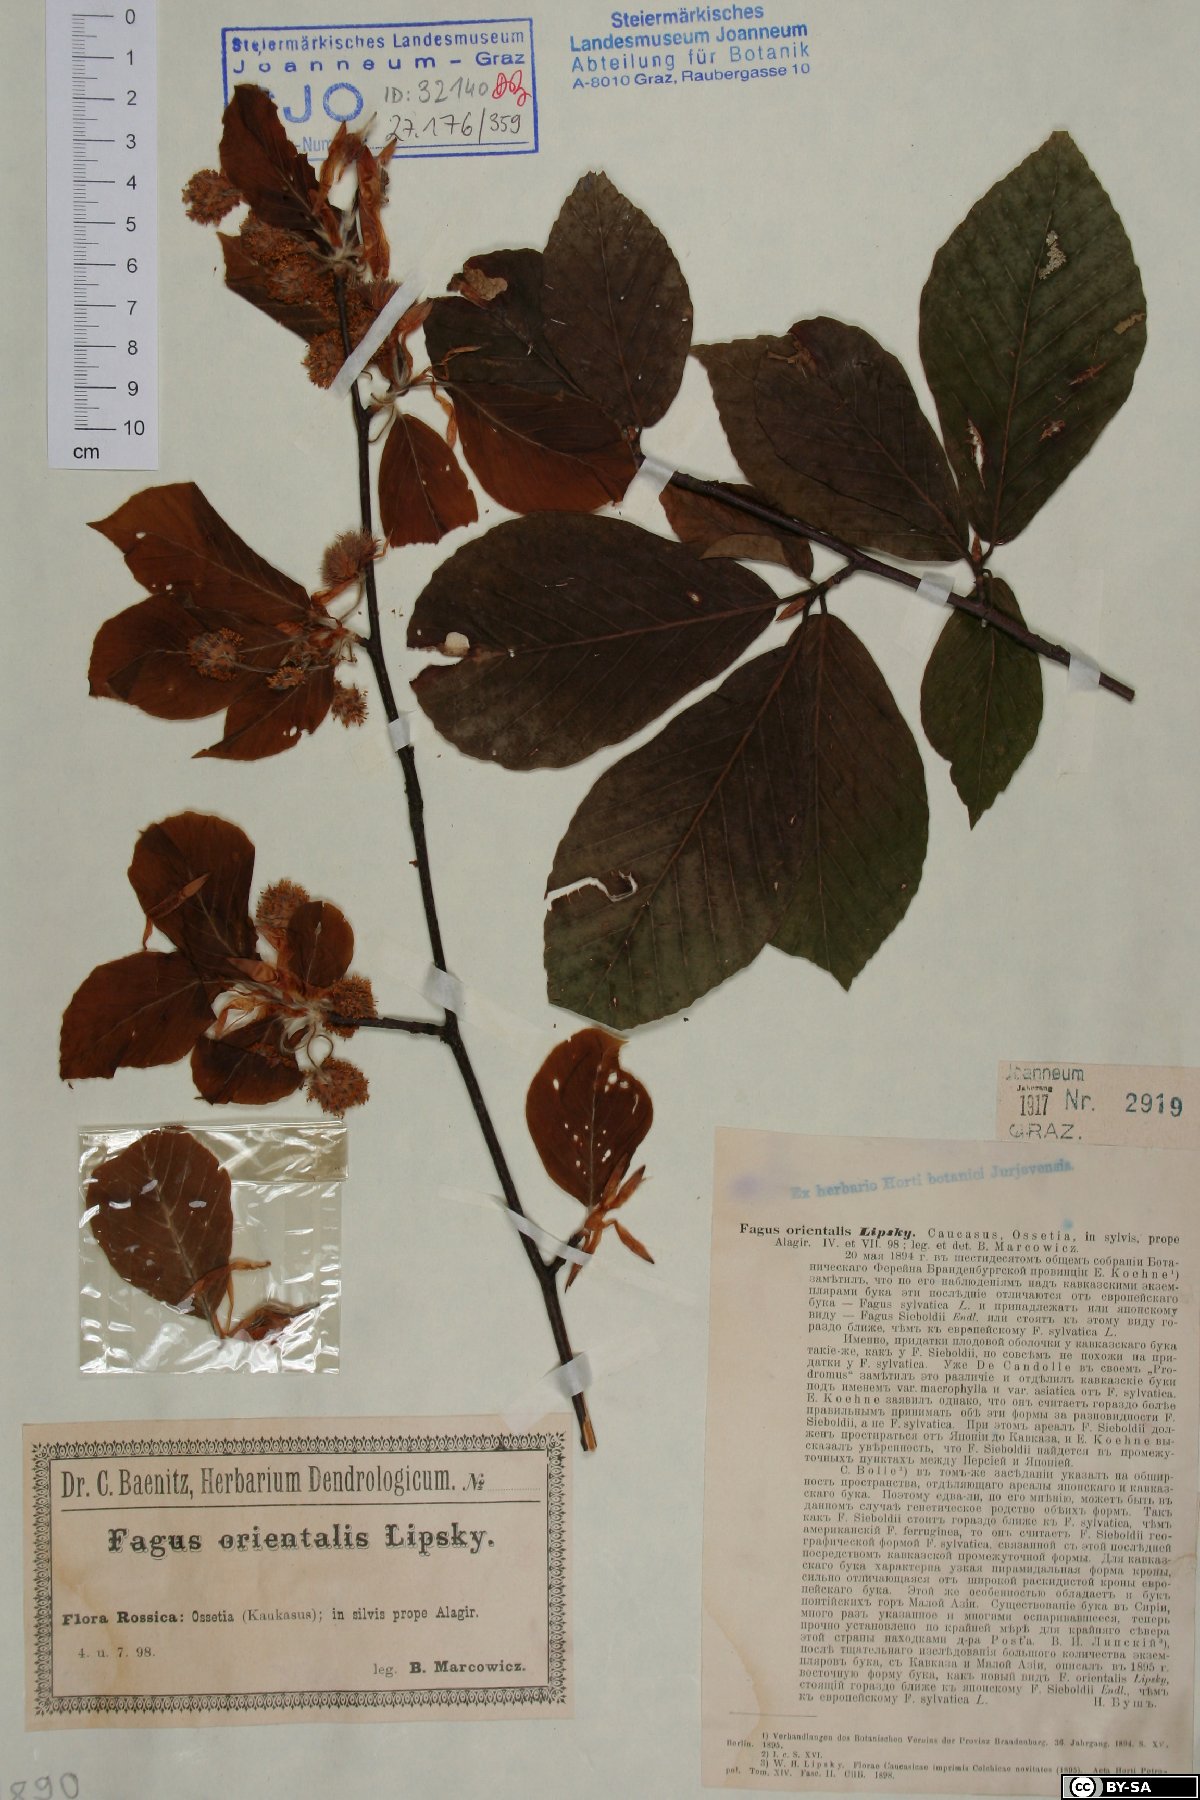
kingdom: Plantae
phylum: Tracheophyta
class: Magnoliopsida
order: Fagales
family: Fagaceae
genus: Fagus
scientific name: Fagus orientalis
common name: Oriental beech
